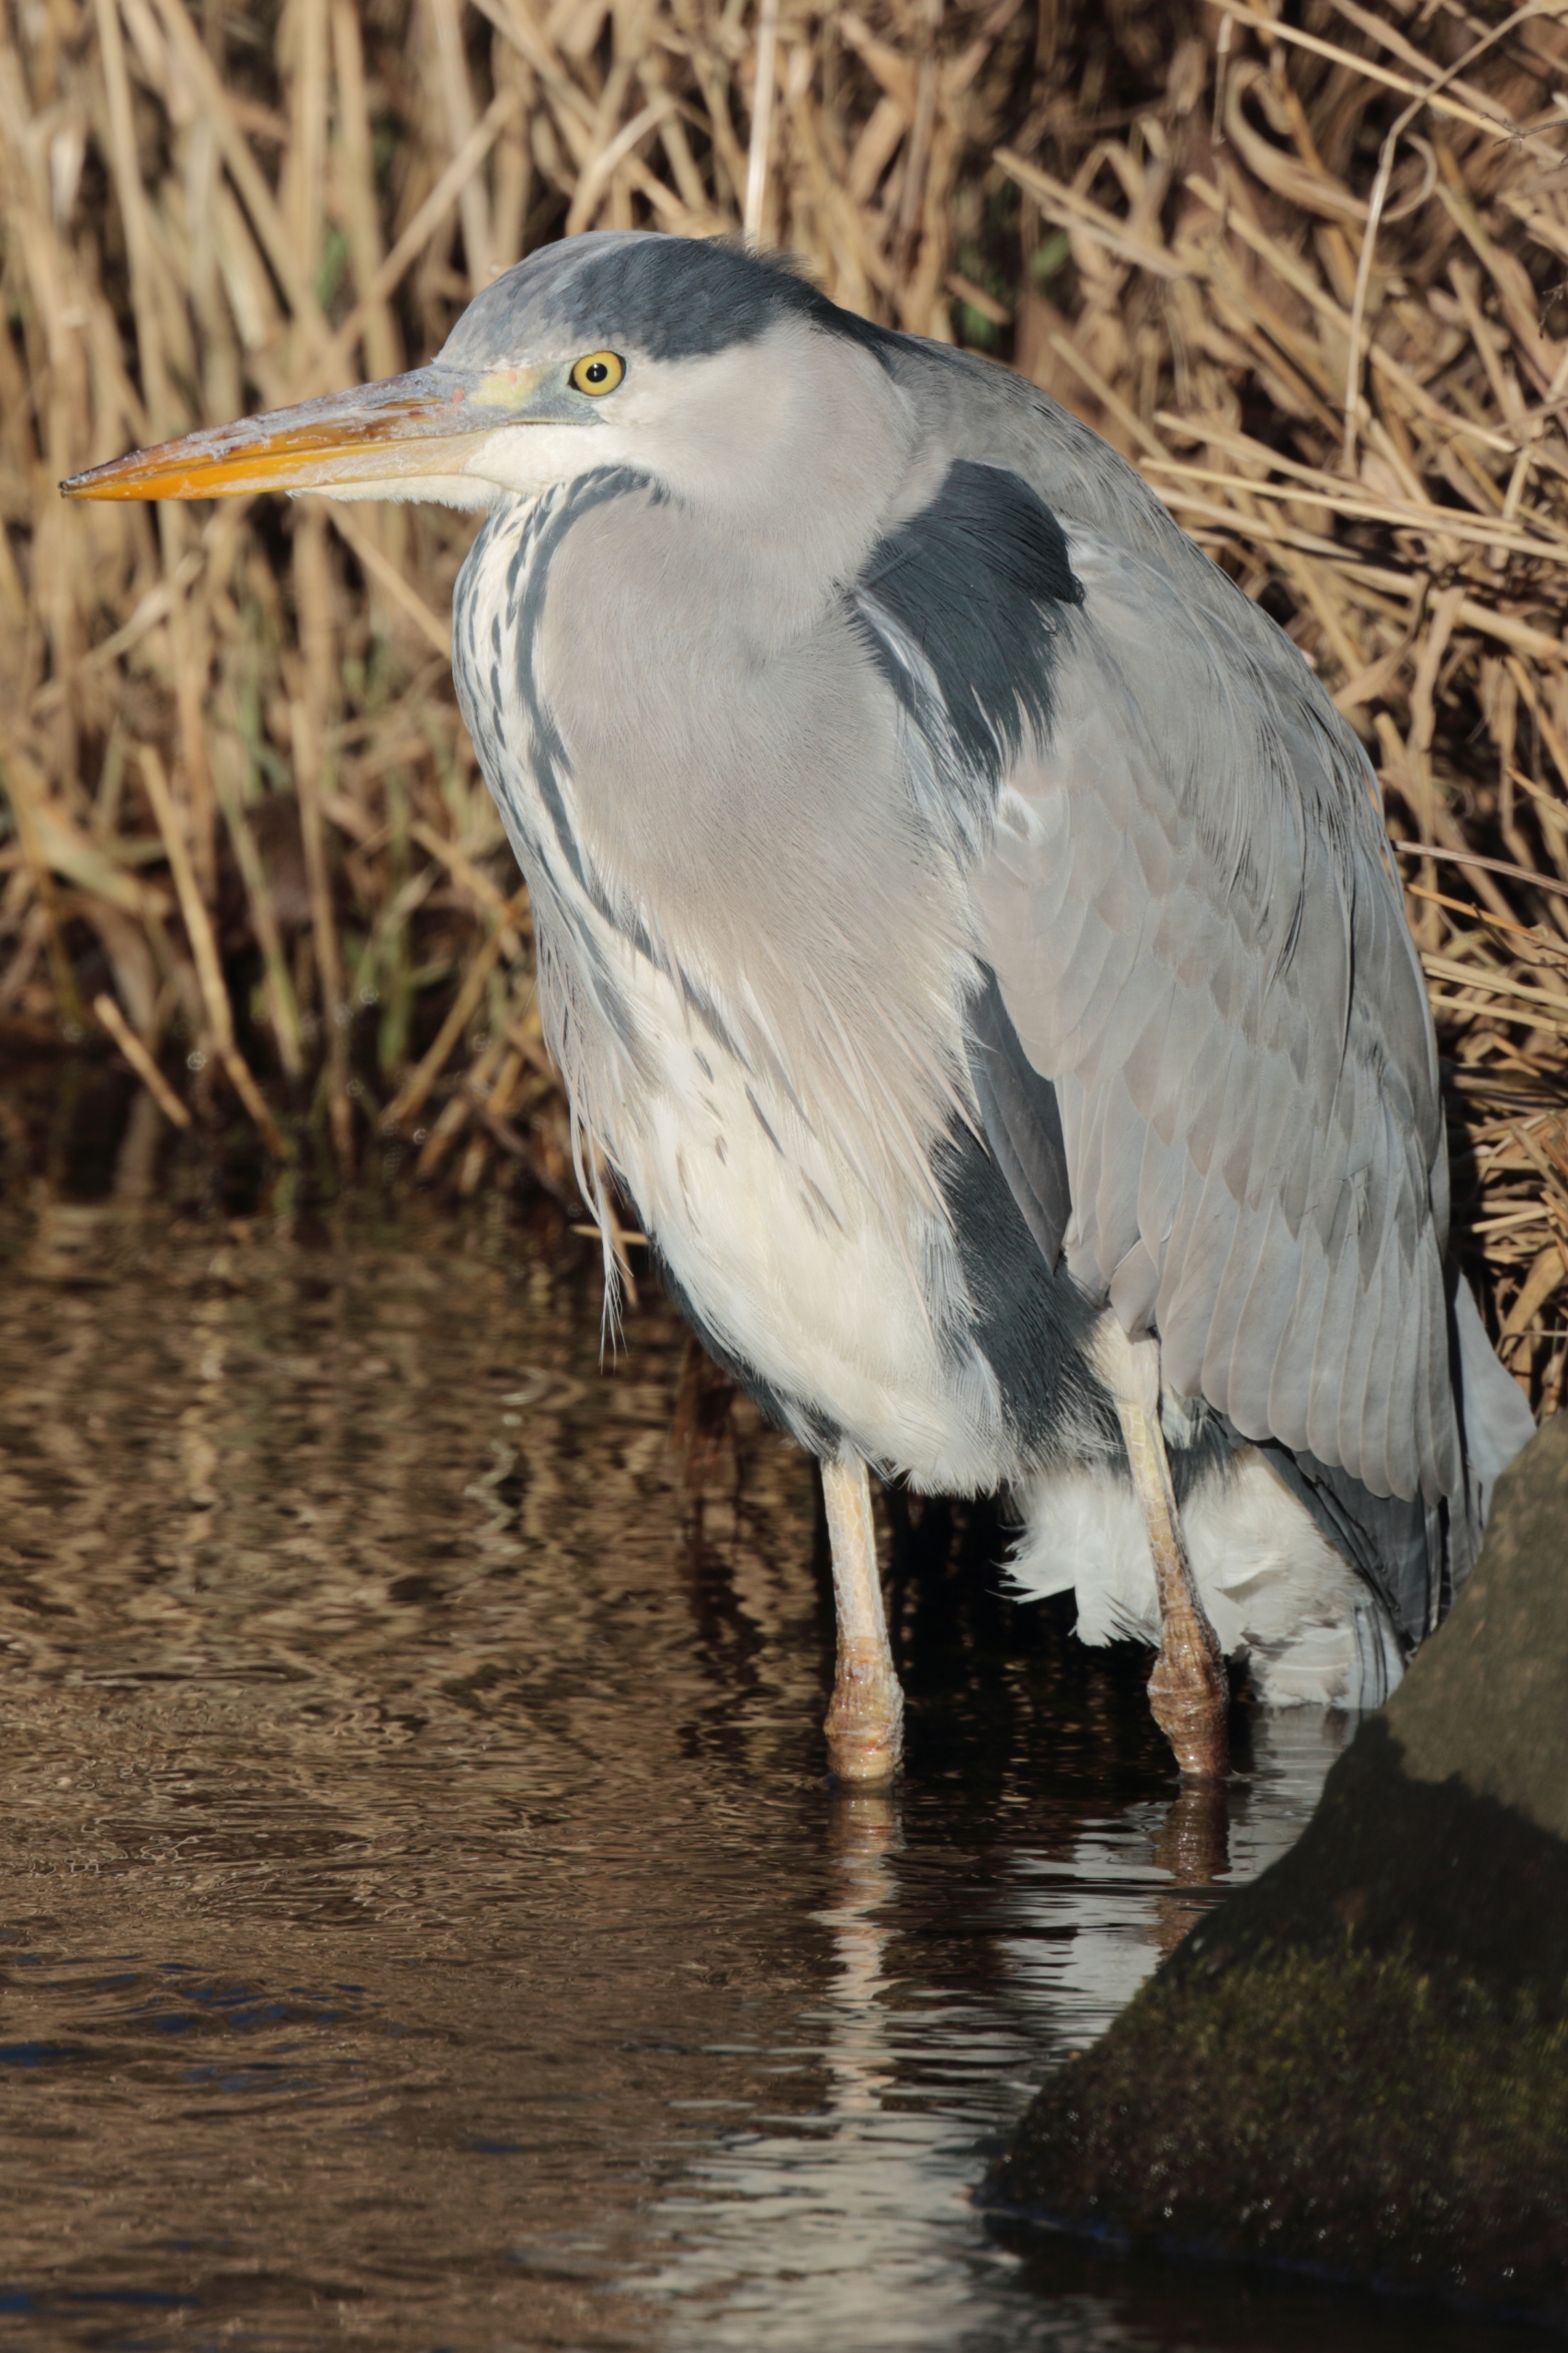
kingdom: Animalia
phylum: Chordata
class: Aves
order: Pelecaniformes
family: Ardeidae
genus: Ardea
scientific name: Ardea cinerea
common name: Fiskehejre
